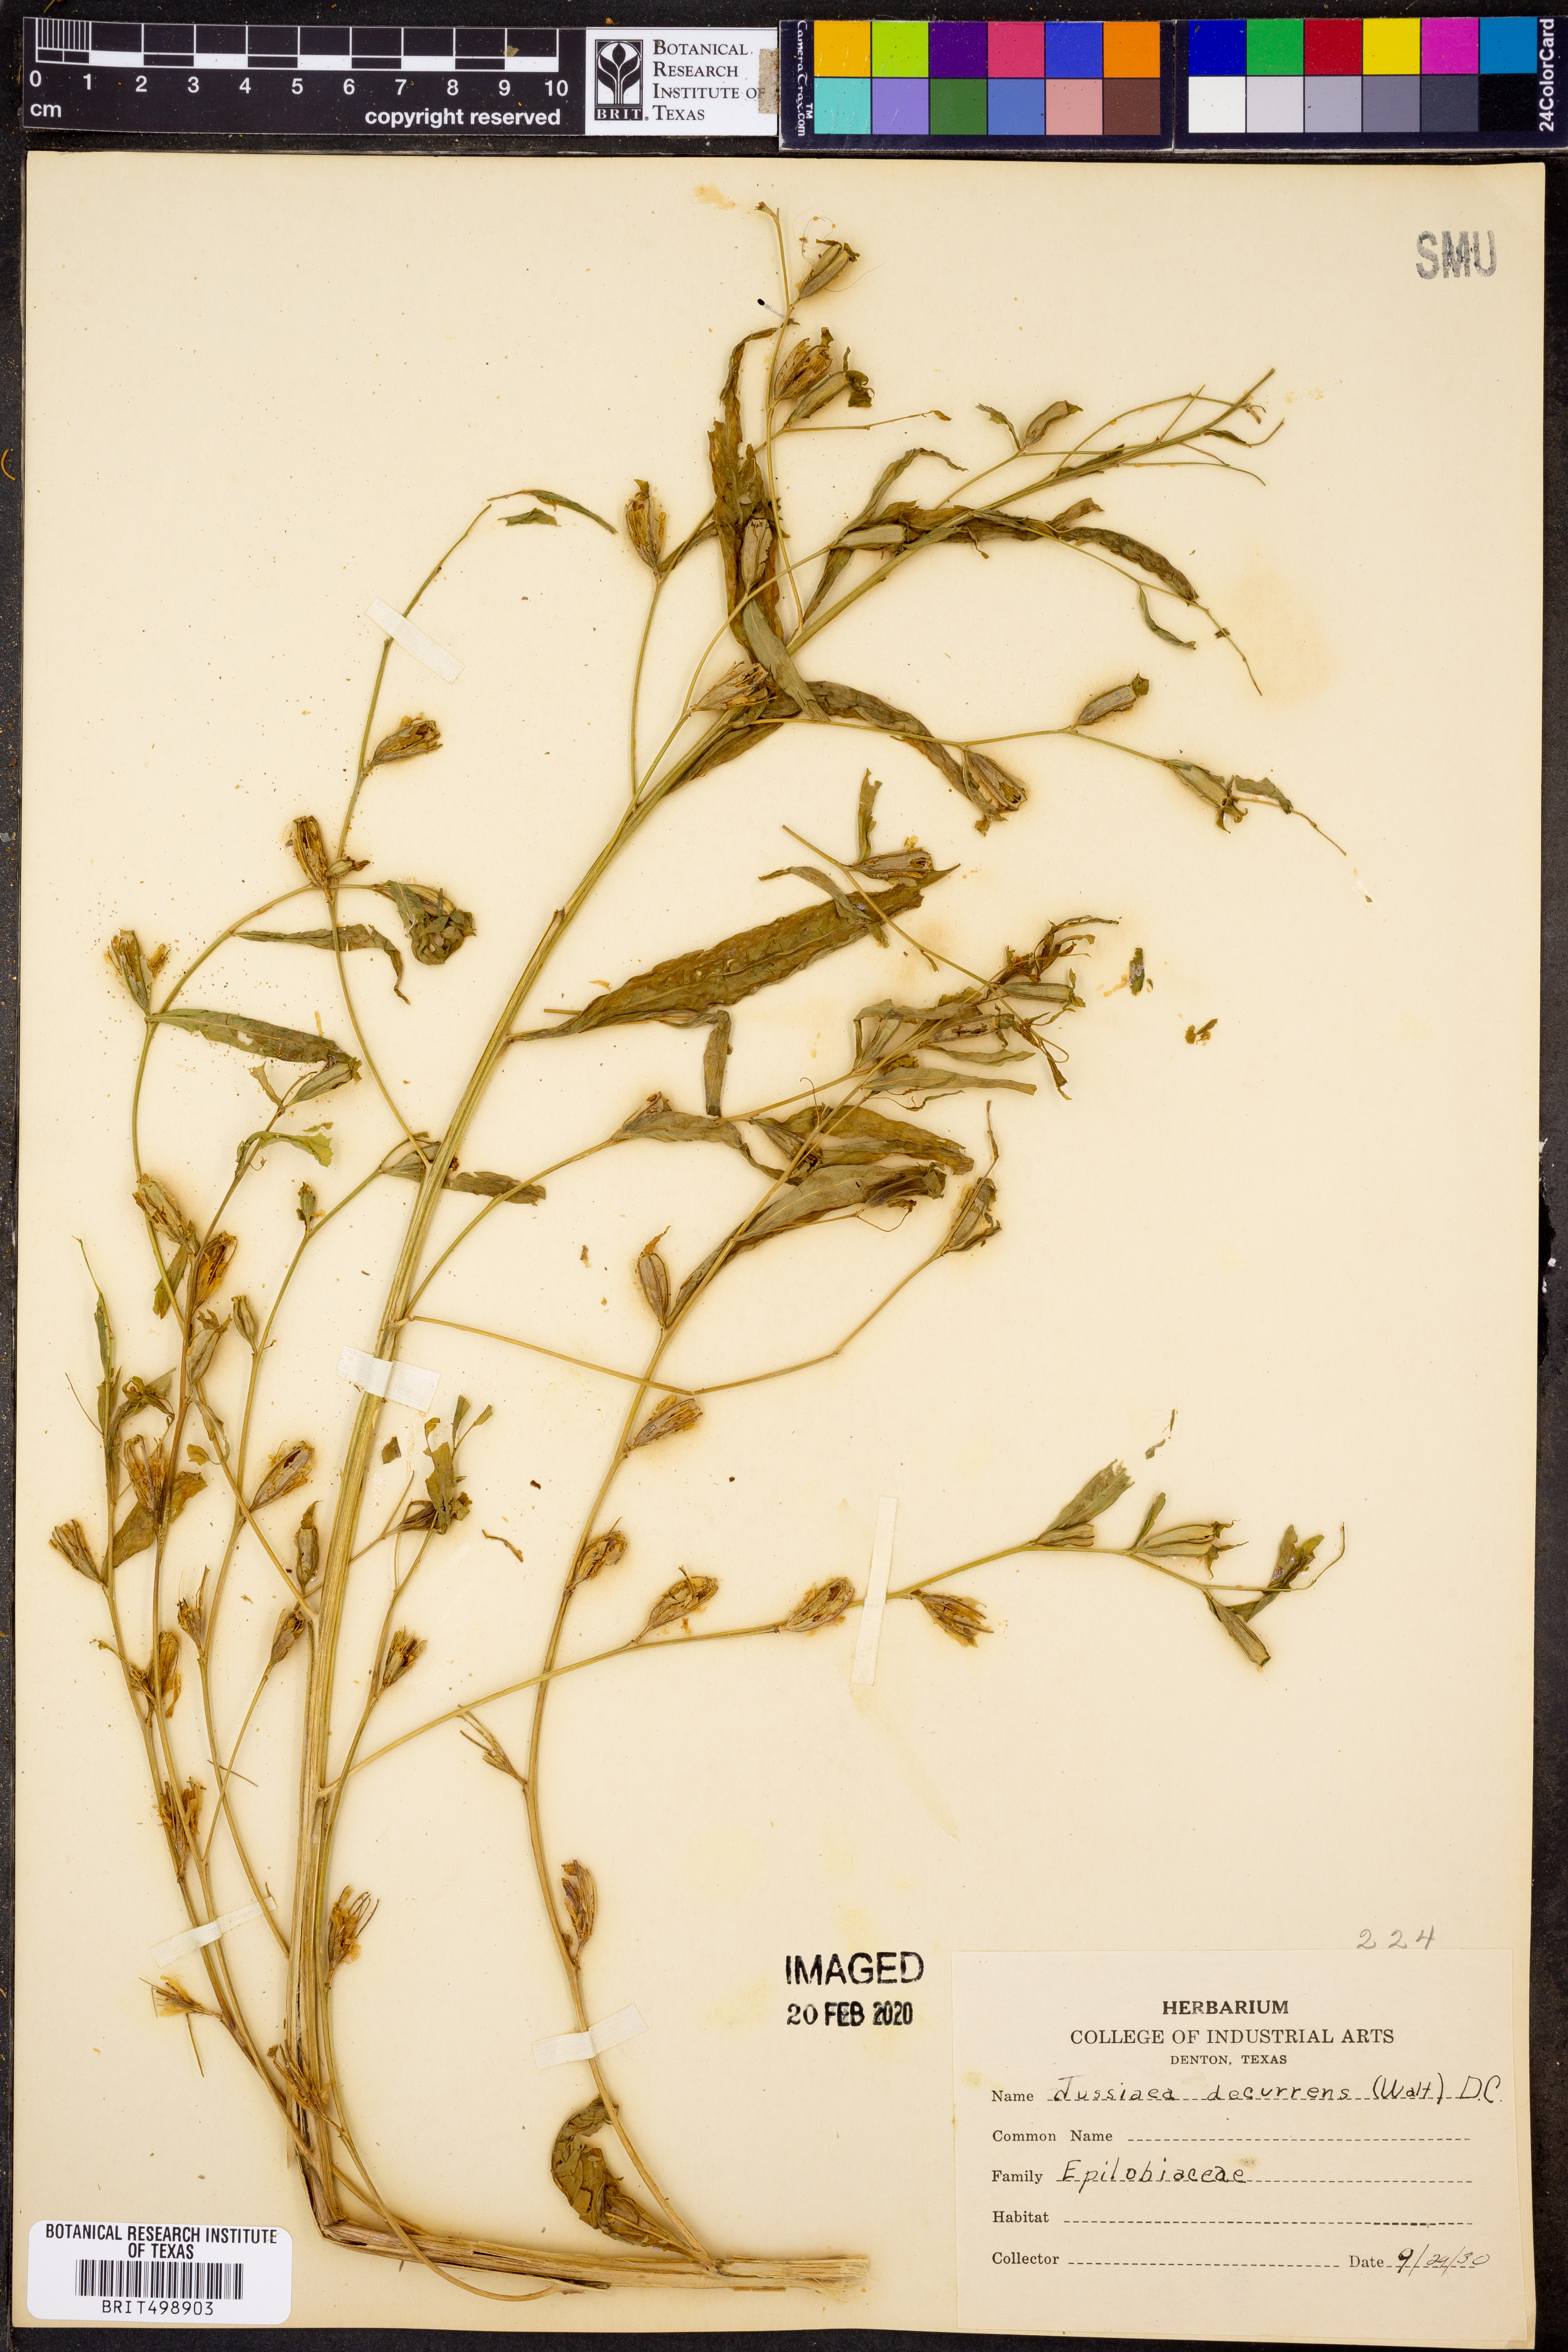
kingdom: Plantae
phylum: Tracheophyta
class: Magnoliopsida
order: Myrtales
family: Onagraceae
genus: Ludwigia
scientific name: Ludwigia decurrens
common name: Winged water-primrose
